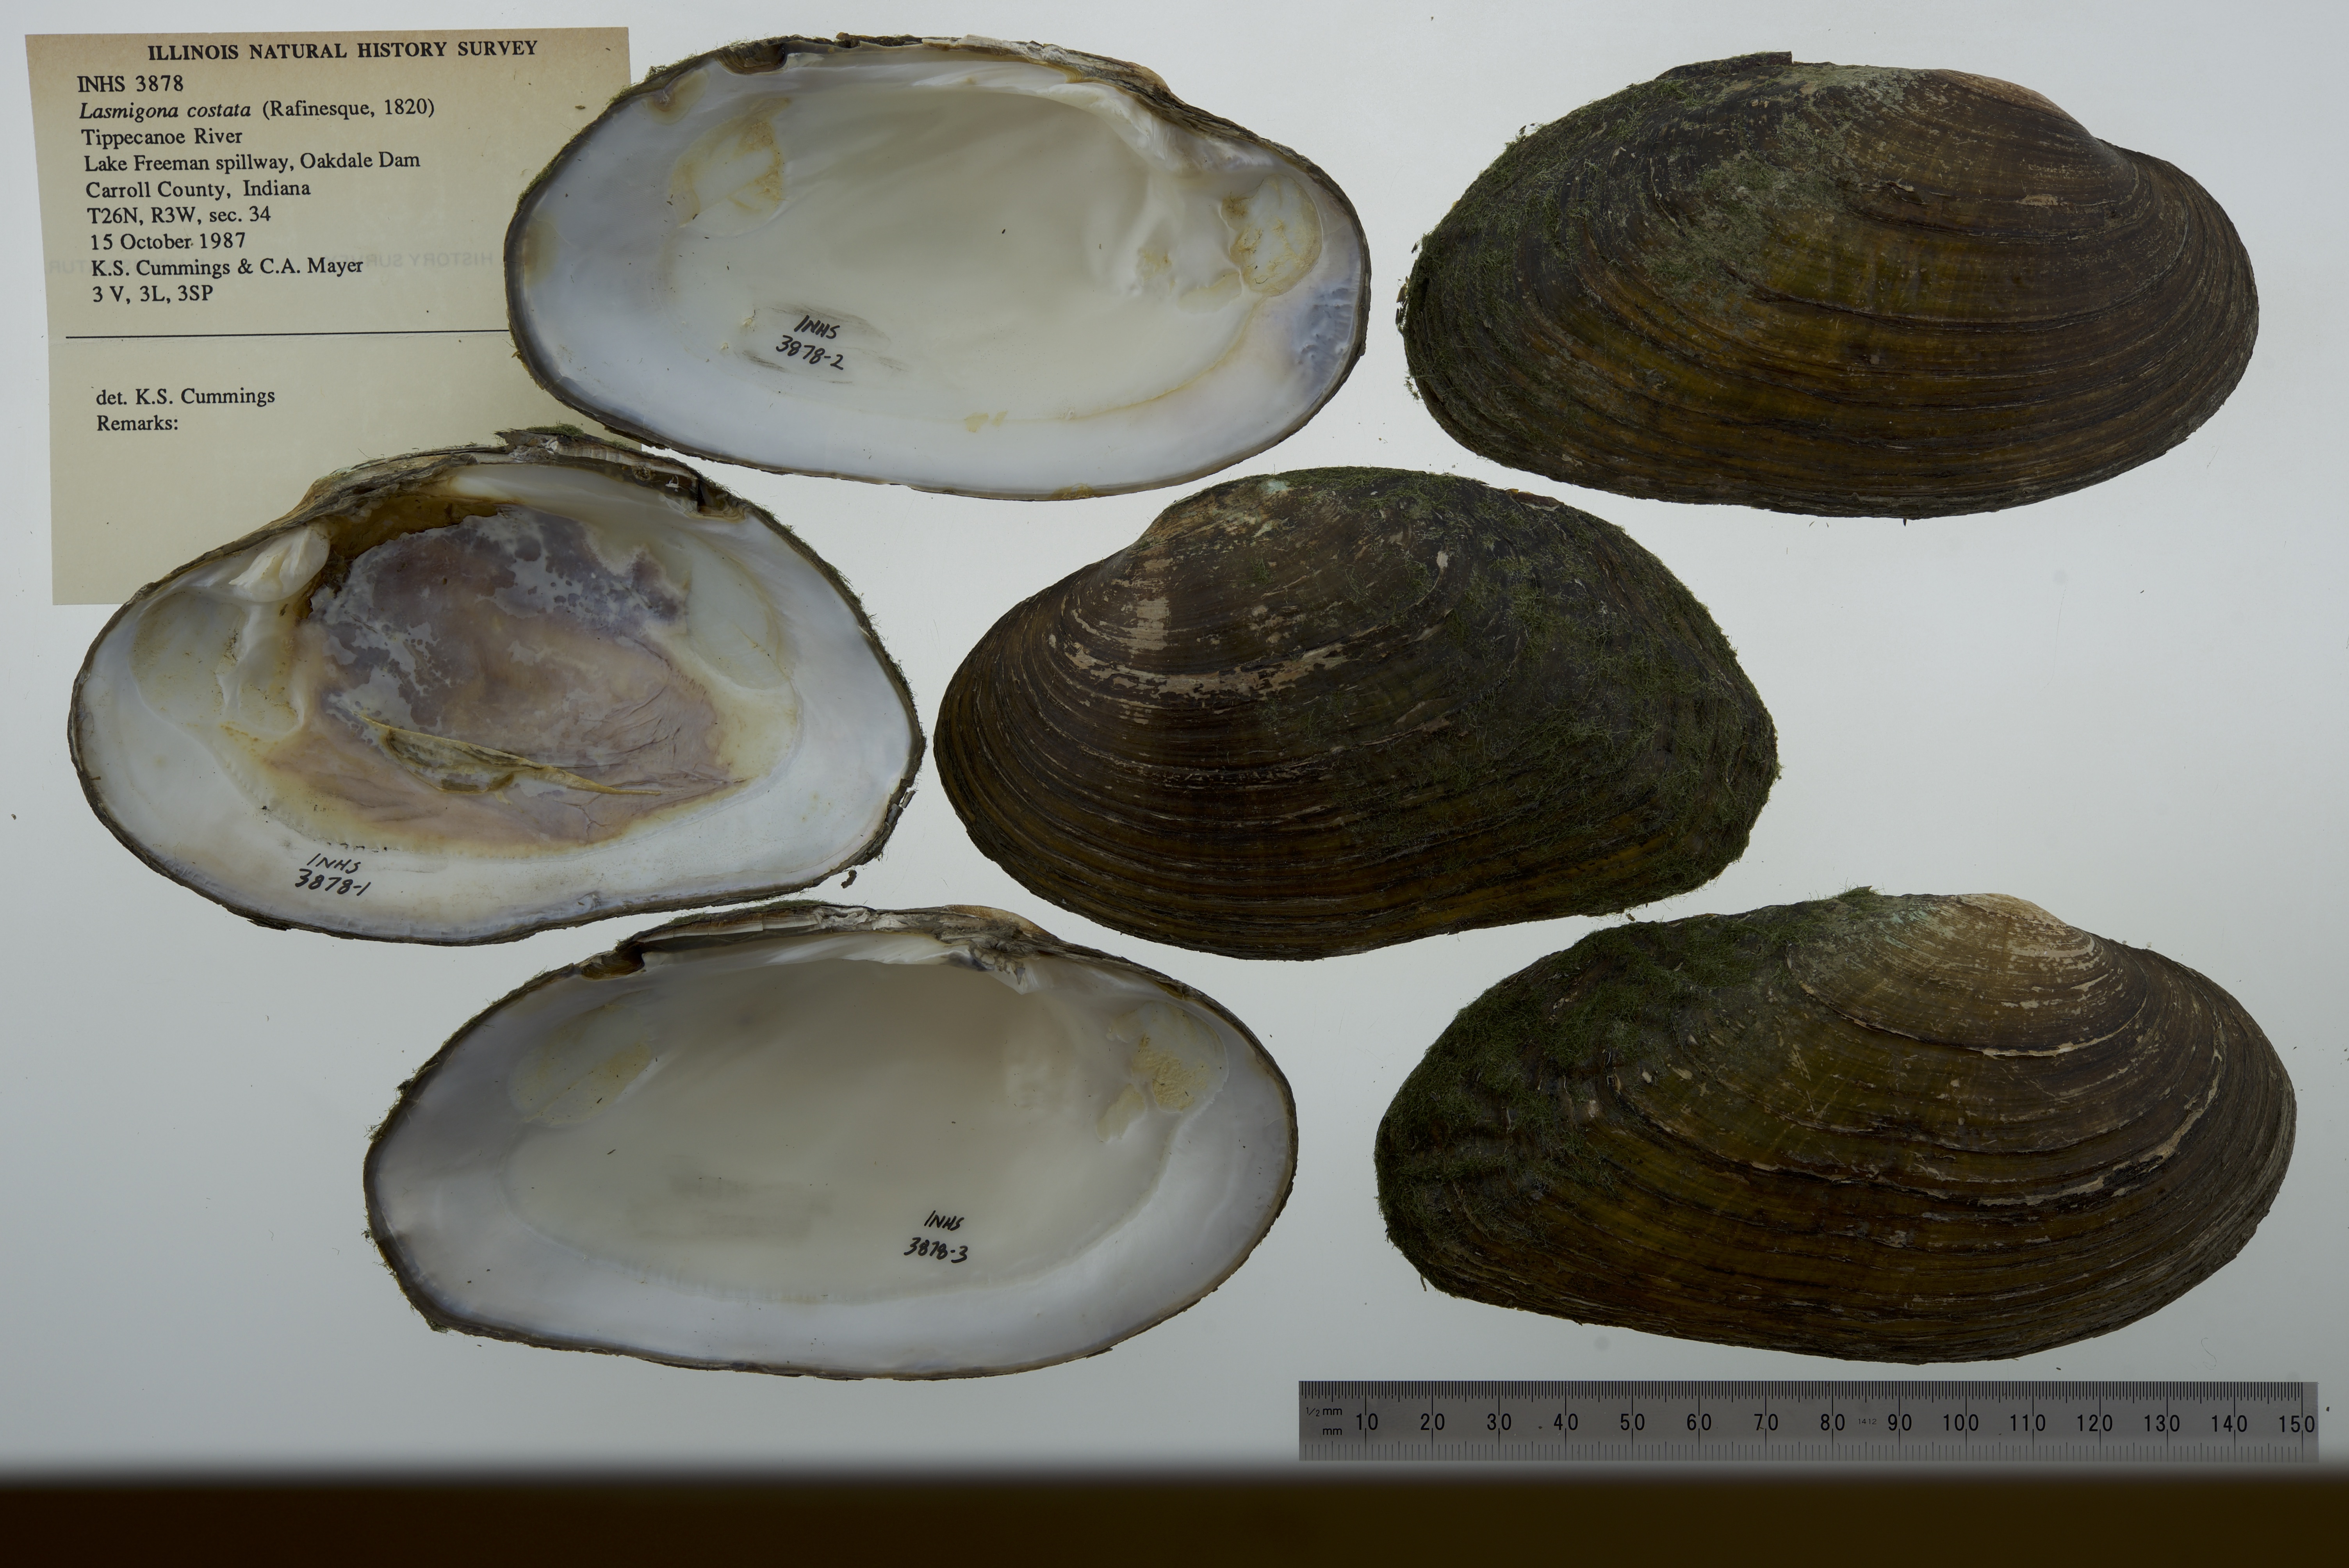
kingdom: Animalia
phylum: Mollusca
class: Bivalvia
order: Unionida
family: Unionidae
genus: Lasmigona
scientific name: Lasmigona costata
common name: Flutedshell
